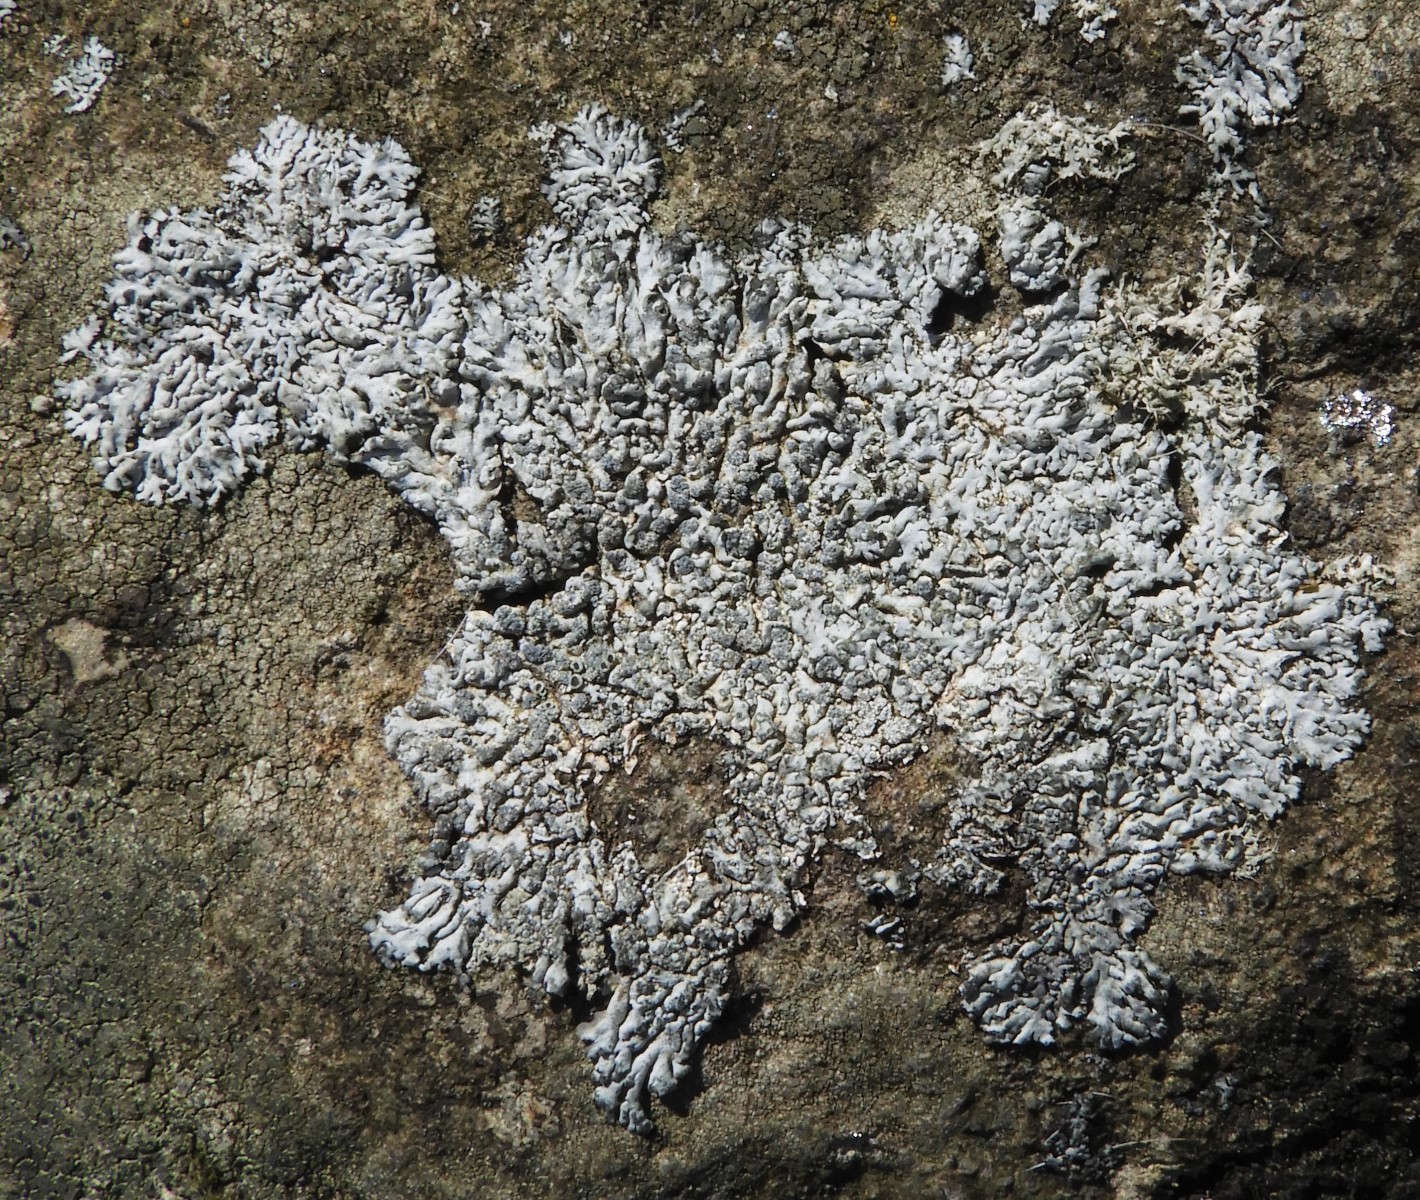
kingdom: Fungi
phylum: Ascomycota
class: Lecanoromycetes
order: Caliciales
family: Physciaceae
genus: Physcia
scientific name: Physcia caesia
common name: blågrå rosetlav
